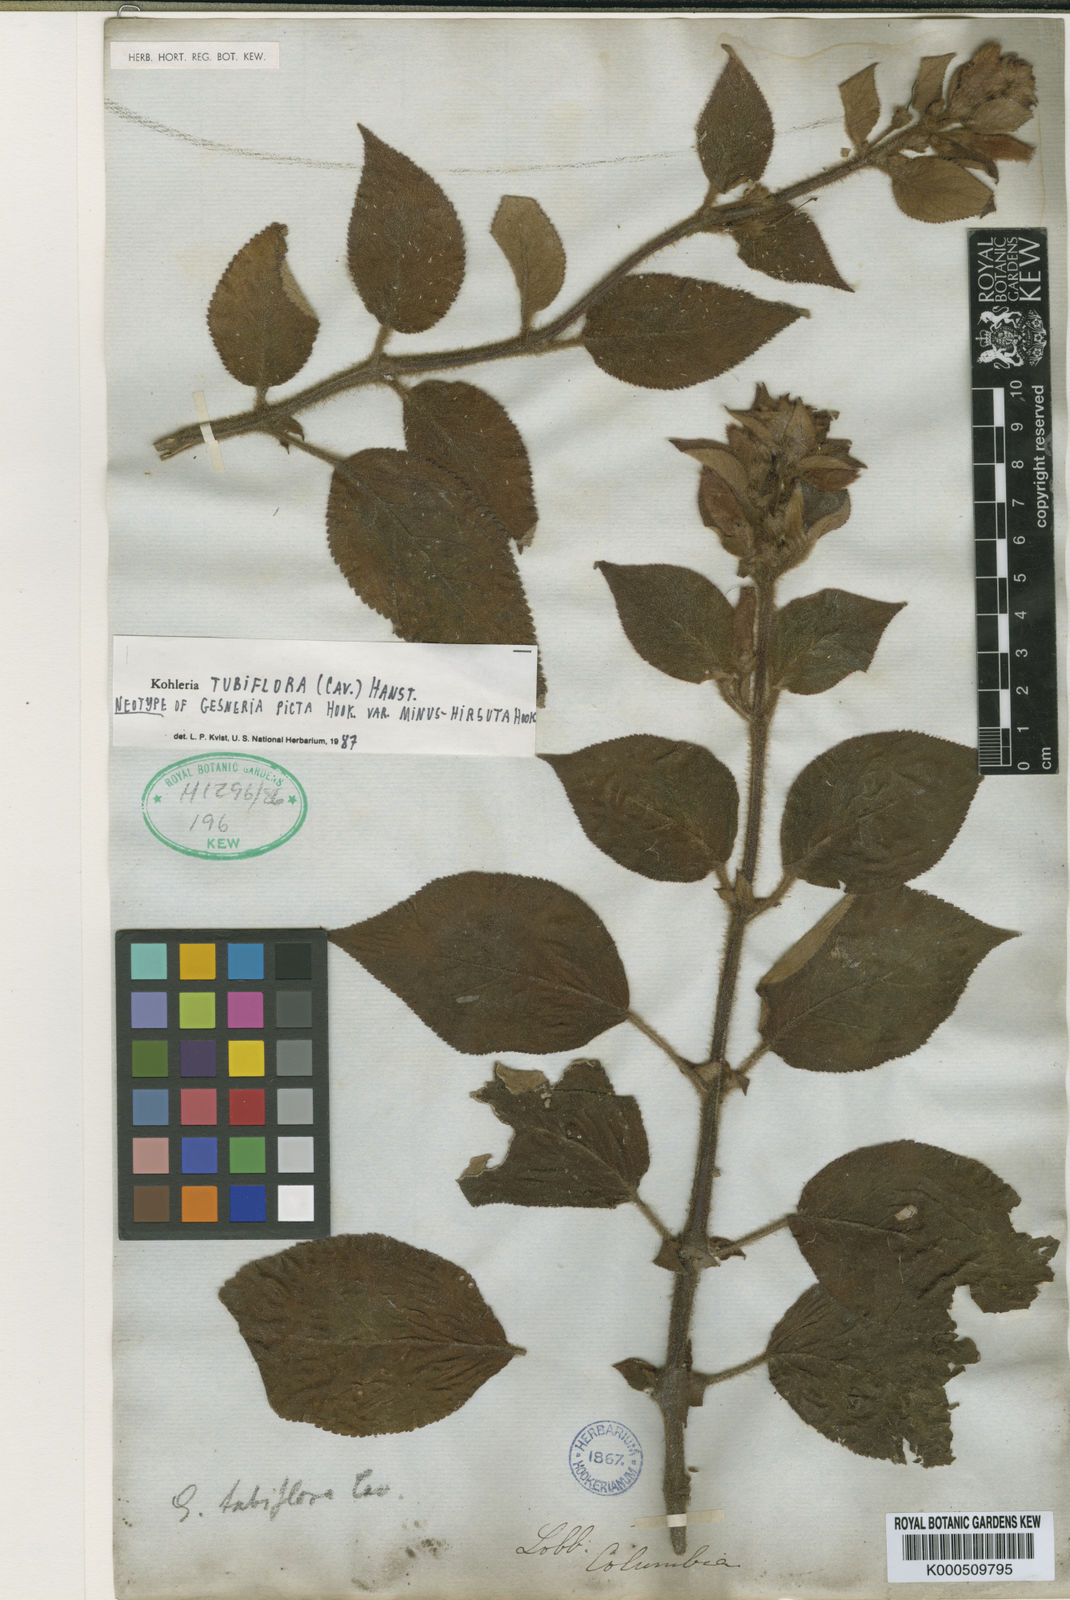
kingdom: Plantae
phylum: Tracheophyta
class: Magnoliopsida
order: Lamiales
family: Gesneriaceae
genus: Kohleria
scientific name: Kohleria tubiflora
